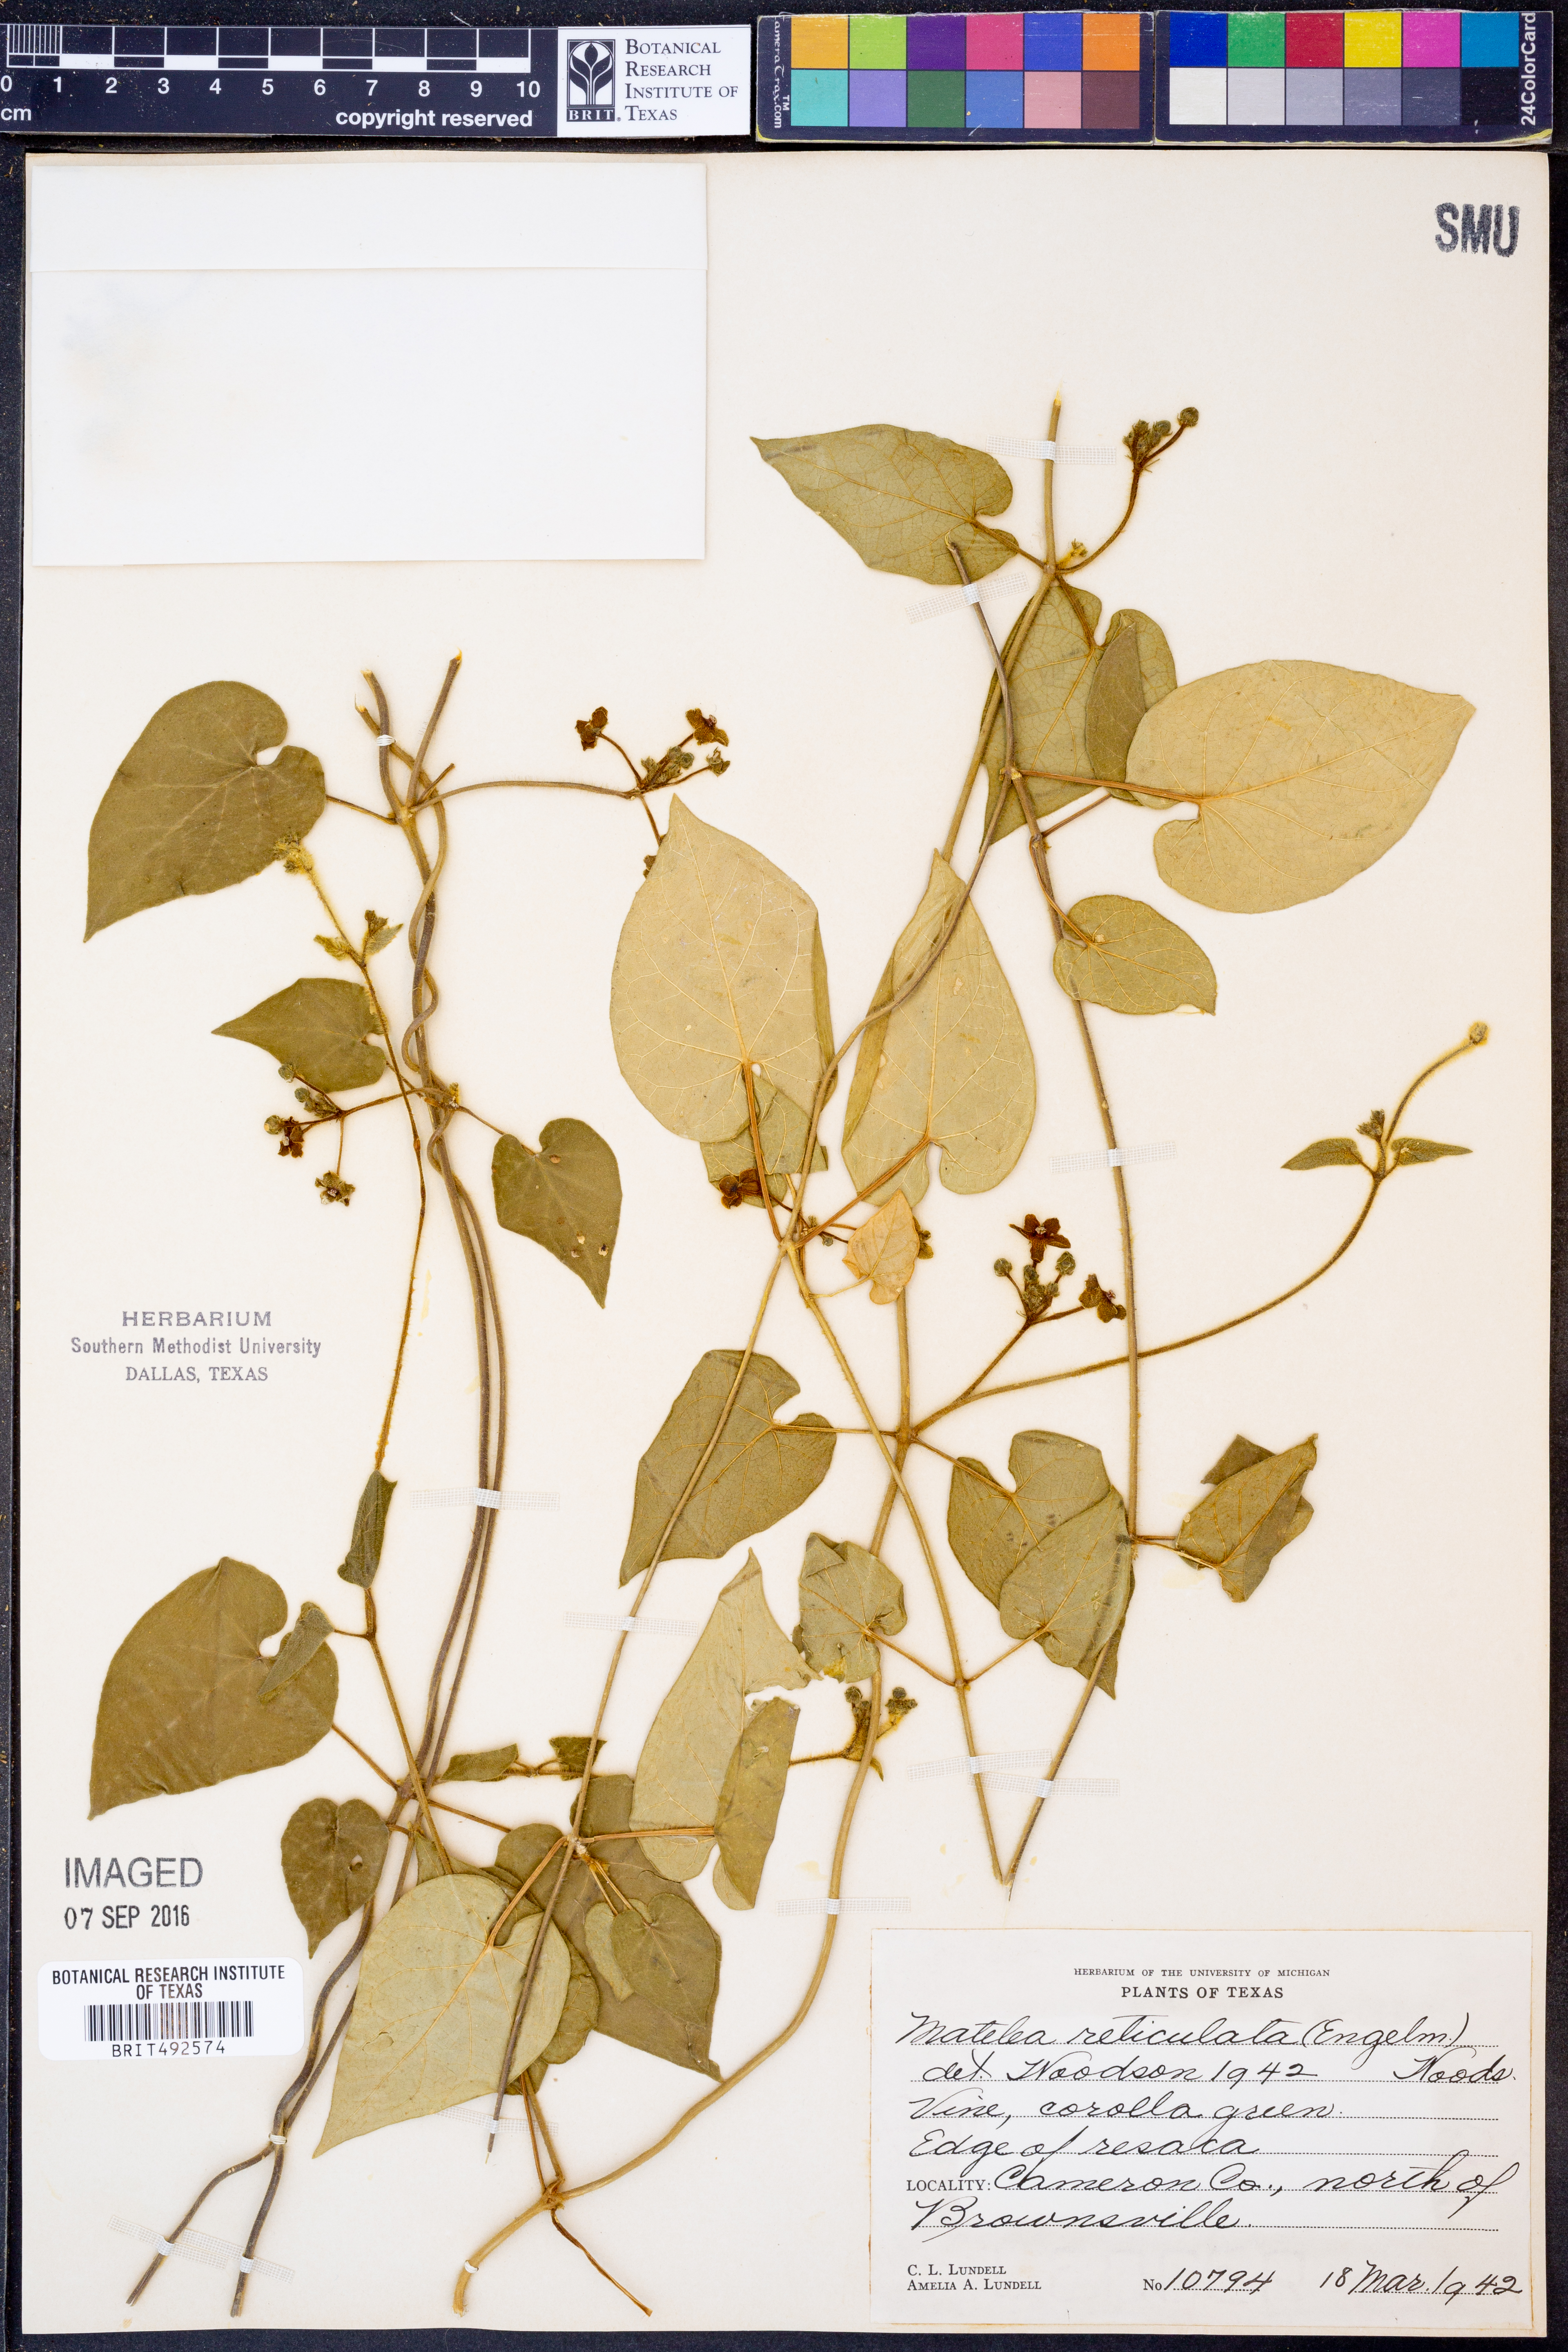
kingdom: Plantae
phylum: Tracheophyta
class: Magnoliopsida
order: Gentianales
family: Apocynaceae
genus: Dictyanthus
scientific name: Dictyanthus reticulatus
